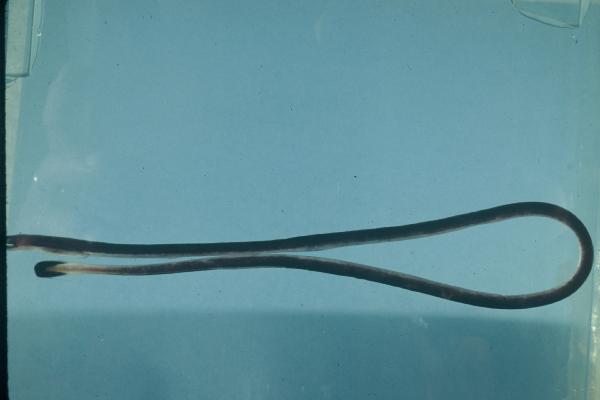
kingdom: Animalia
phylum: Chordata
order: Anguilliformes
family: Moringuidae
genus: Moringua
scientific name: Moringua javanica
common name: Java spaghetti eel
